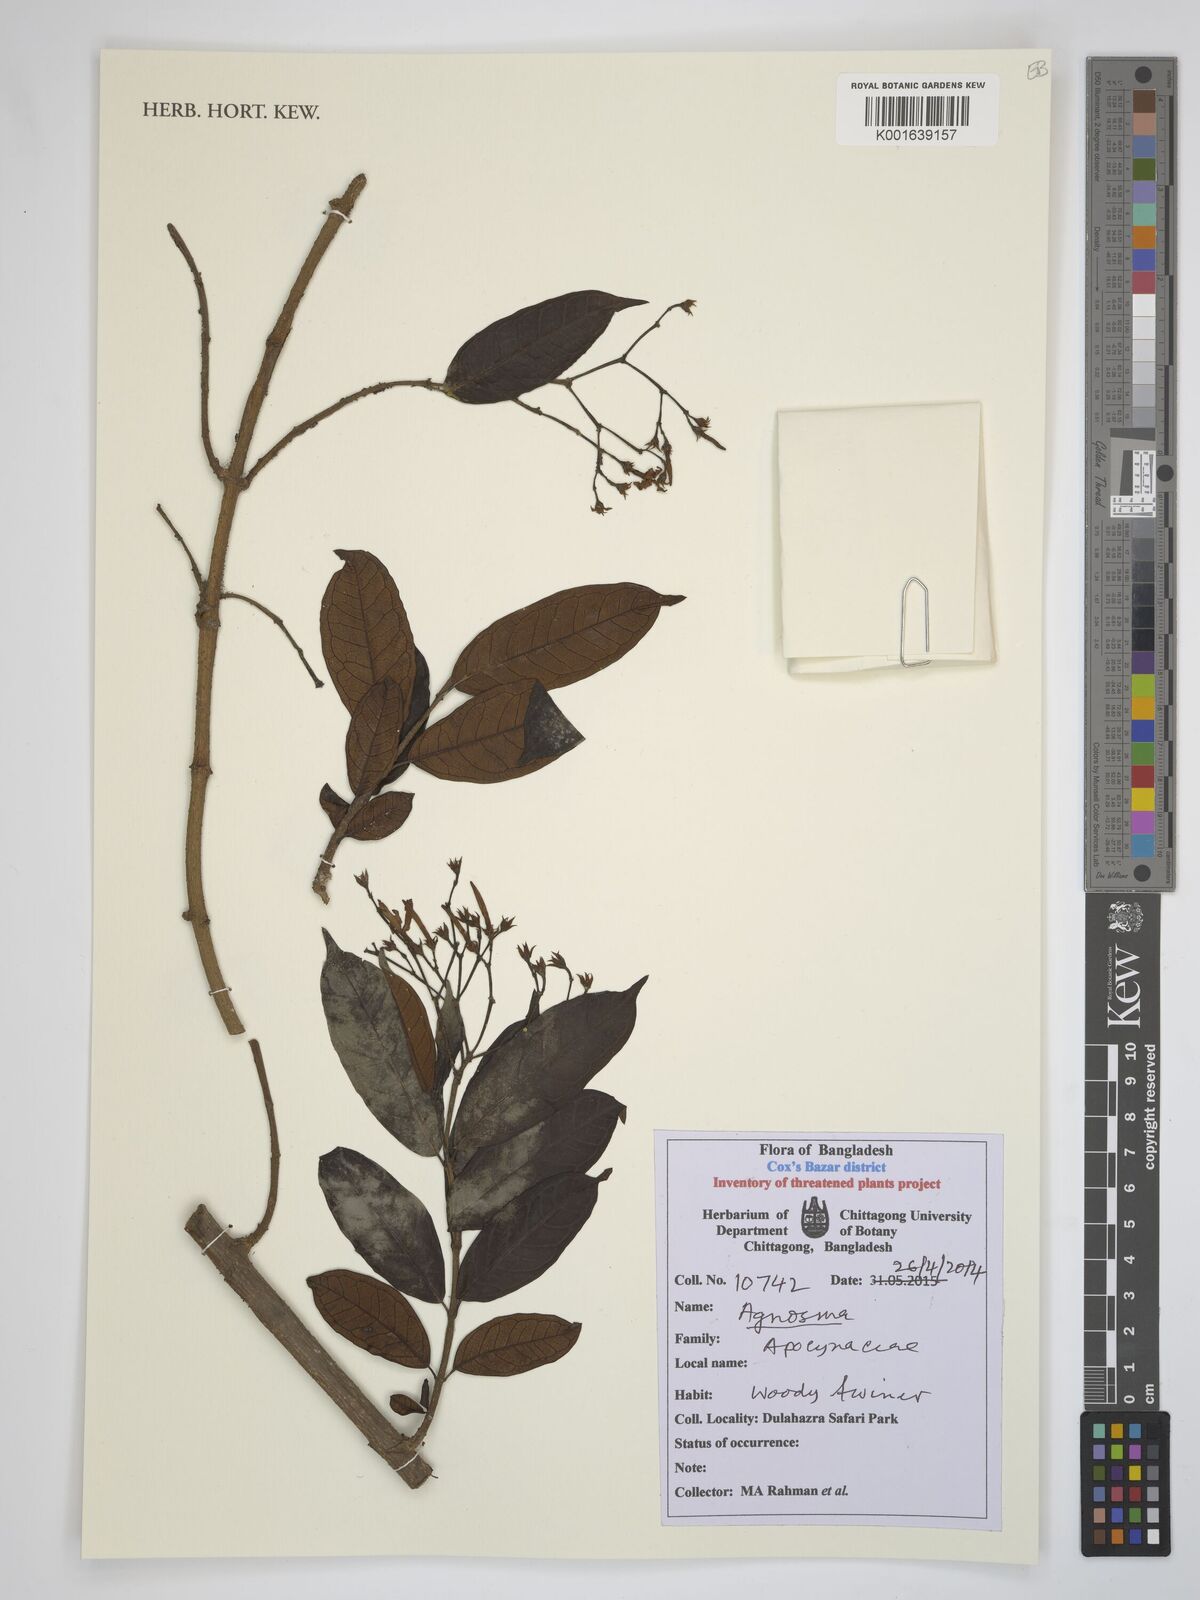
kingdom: Plantae
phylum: Tracheophyta
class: Magnoliopsida
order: Gentianales
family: Apocynaceae
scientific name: Apocynaceae
